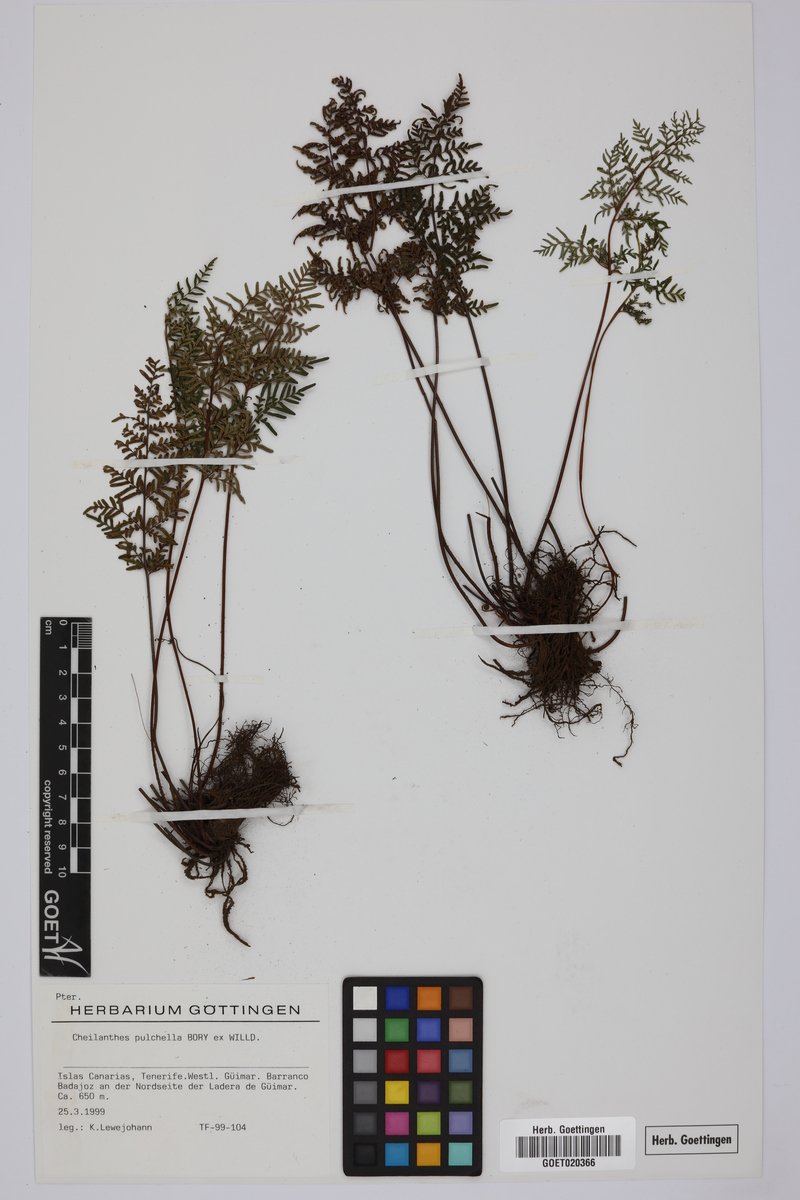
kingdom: Plantae
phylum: Tracheophyta
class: Polypodiopsida
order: Polypodiales
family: Pteridaceae
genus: Oeosporangium
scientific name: Oeosporangium pulchellum
